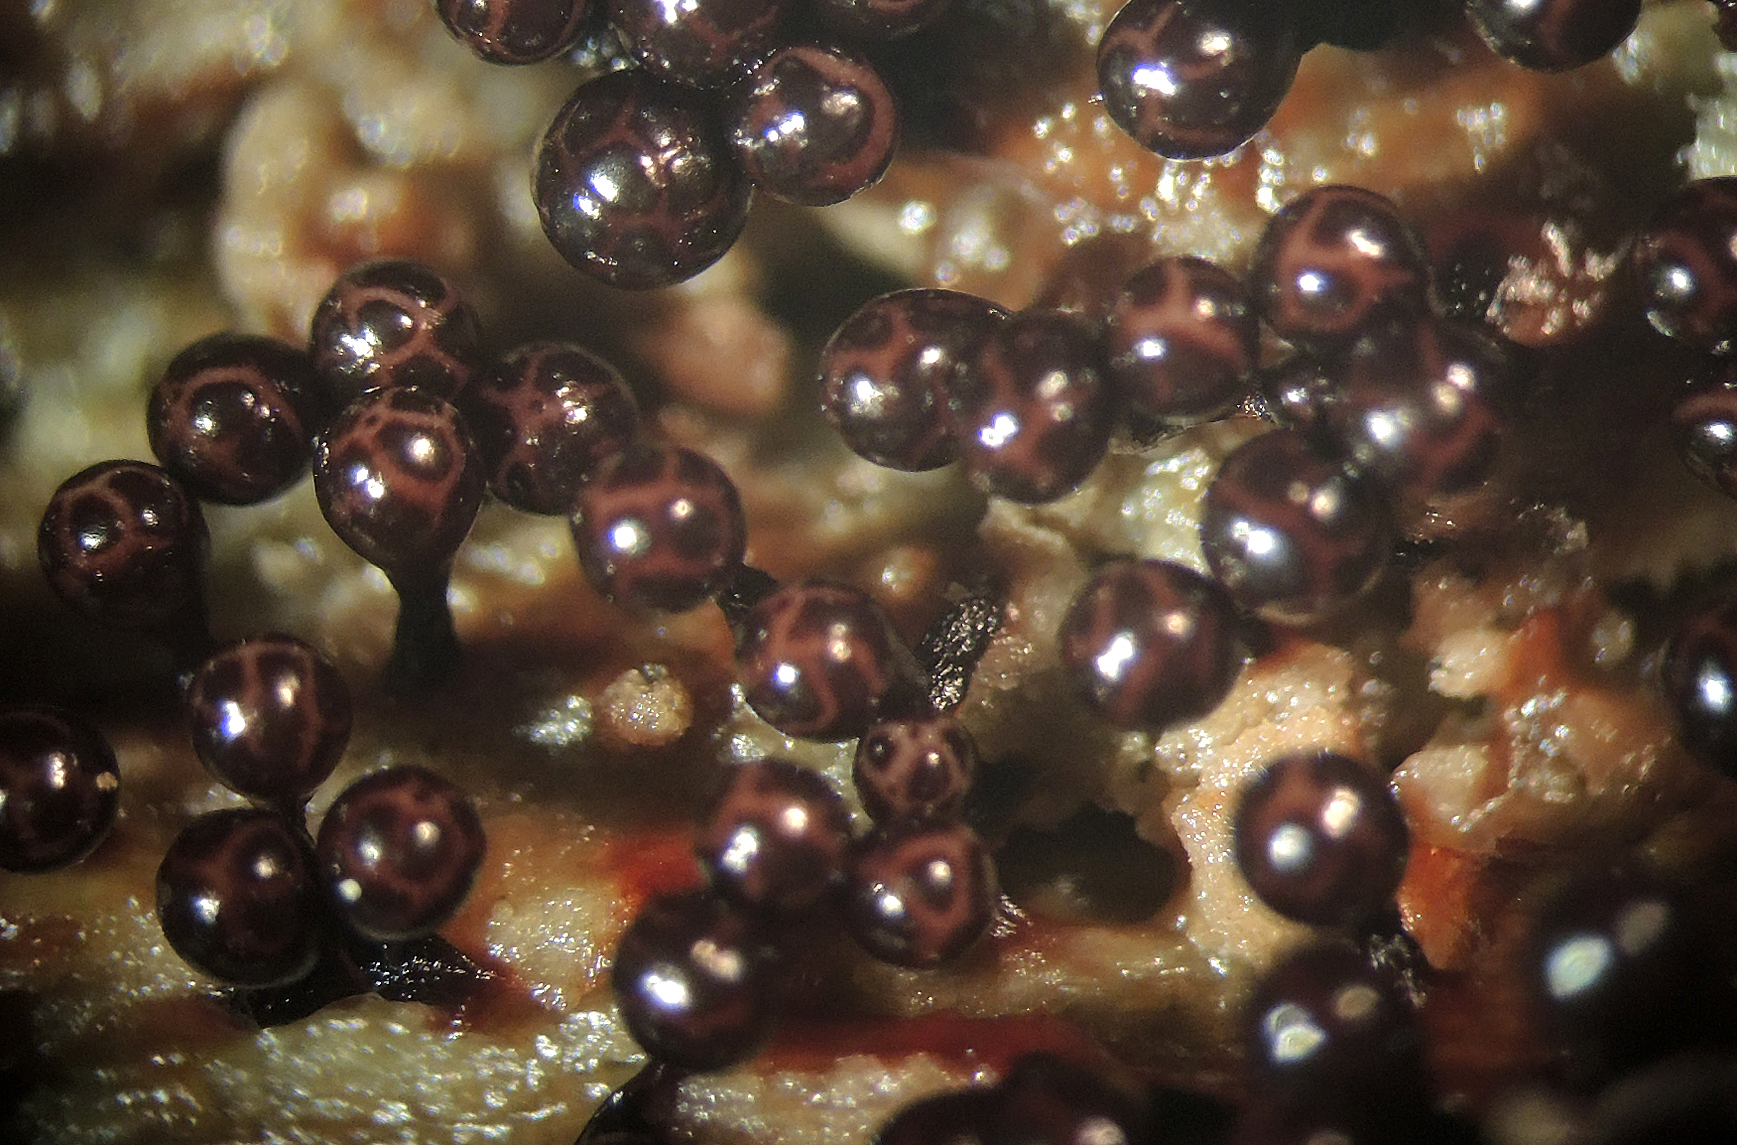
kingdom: Protozoa
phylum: Mycetozoa
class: Myxomycetes
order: Trichiales
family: Trichiaceae
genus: Trichia
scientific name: Trichia botrytis
